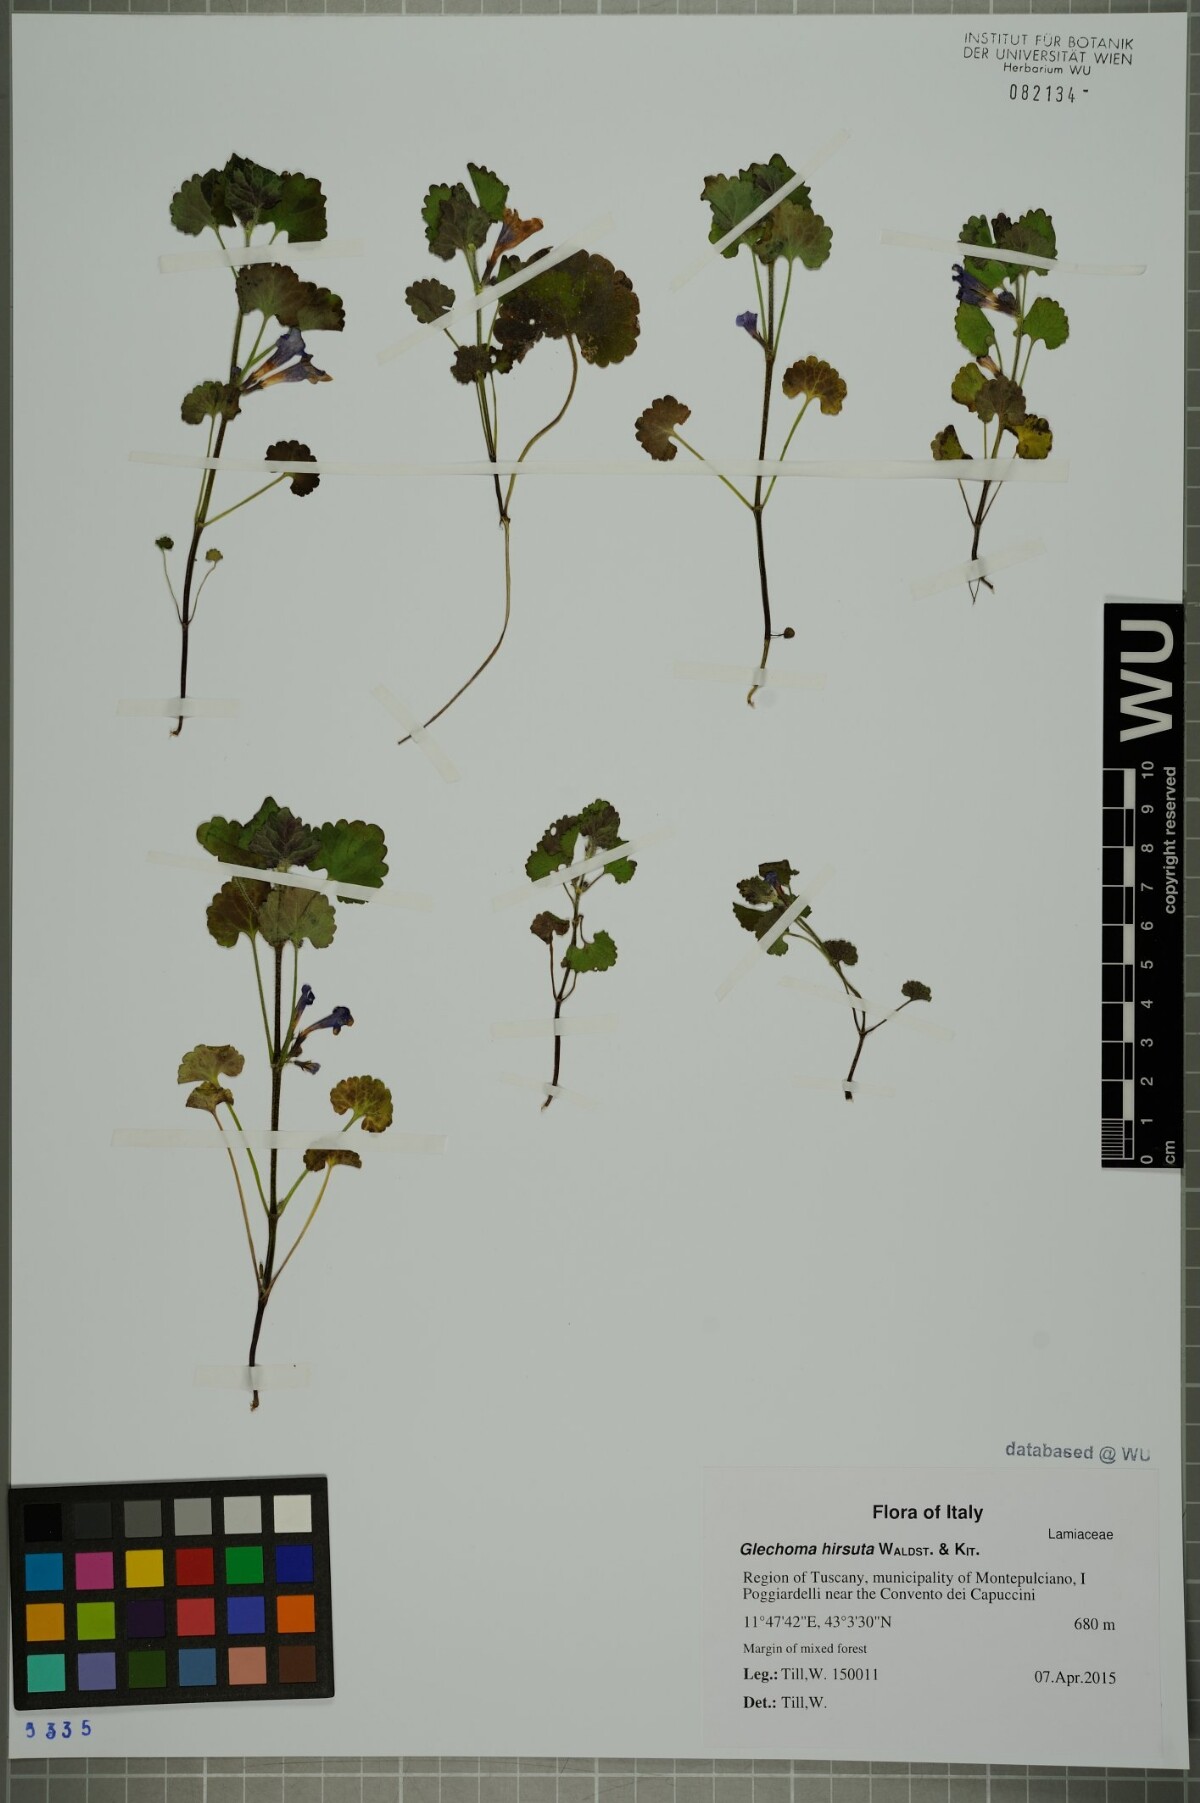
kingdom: Plantae
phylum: Tracheophyta
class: Magnoliopsida
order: Lamiales
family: Lamiaceae
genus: Glechoma
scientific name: Glechoma hirsuta
